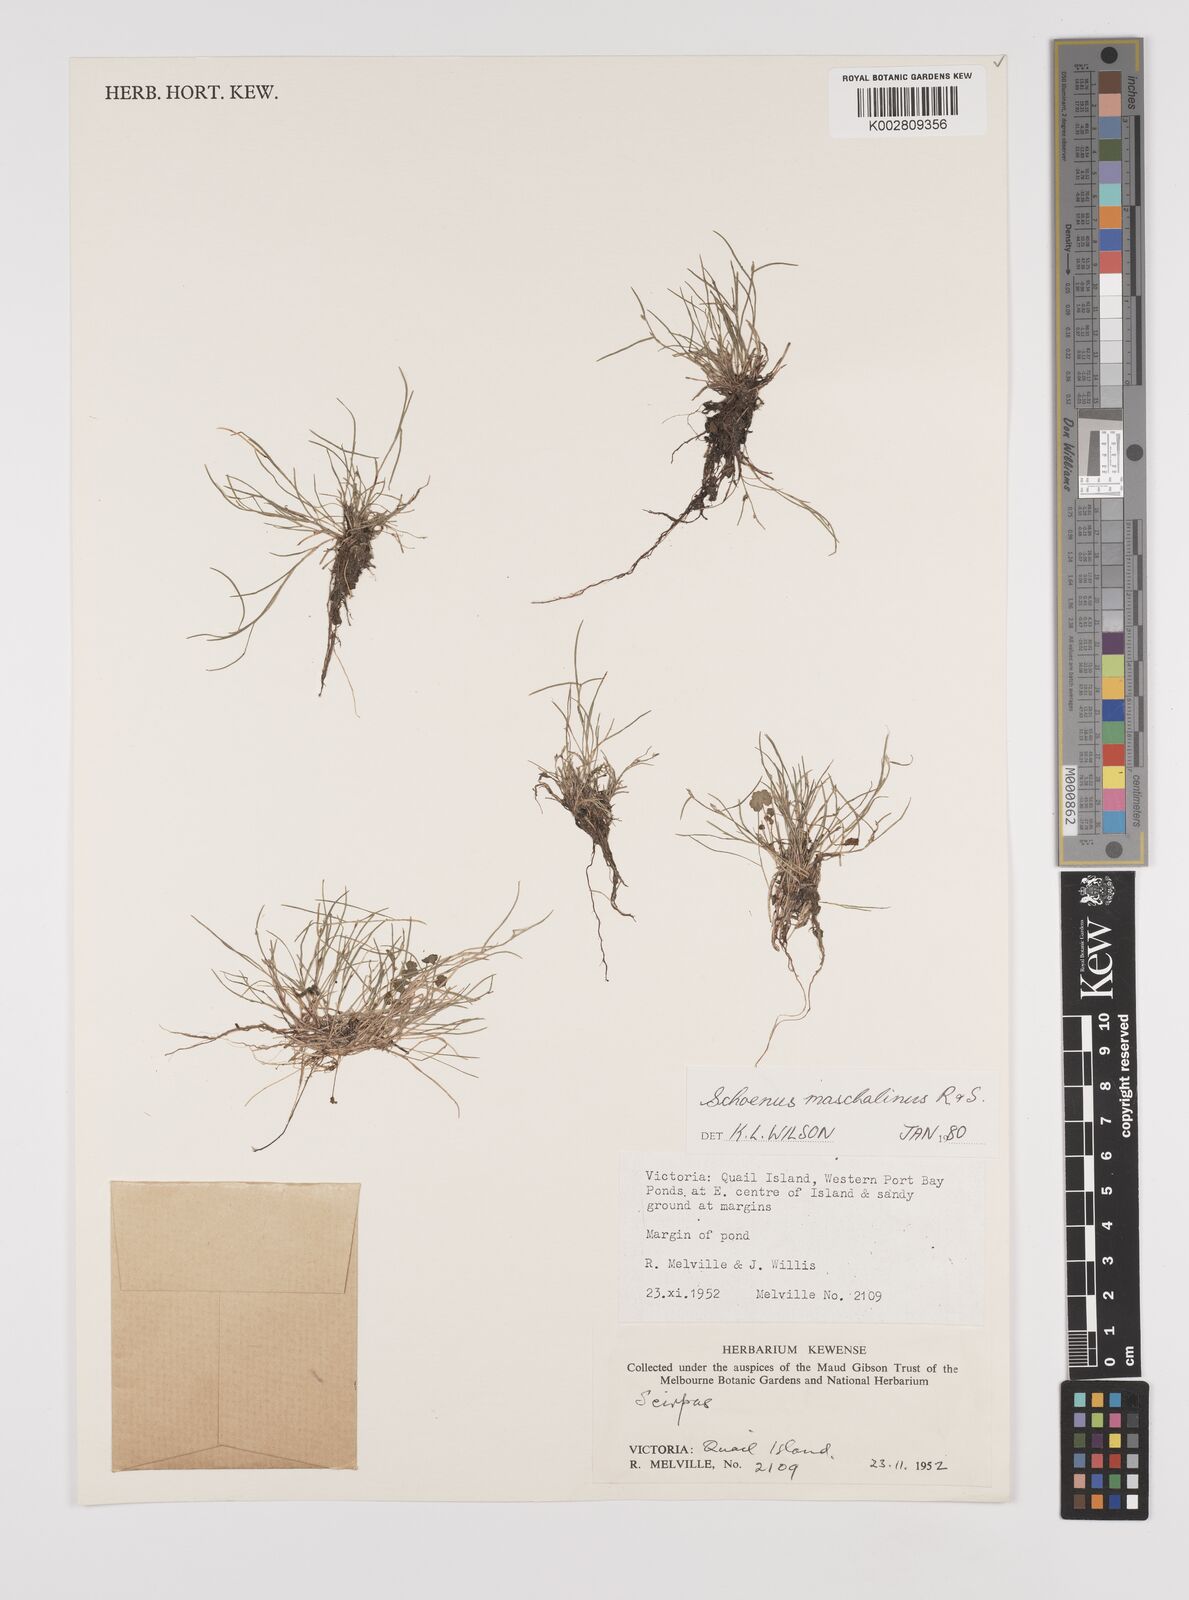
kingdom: Plantae
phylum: Tracheophyta
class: Liliopsida
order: Poales
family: Cyperaceae
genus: Schoenus
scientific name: Schoenus maschalinus
